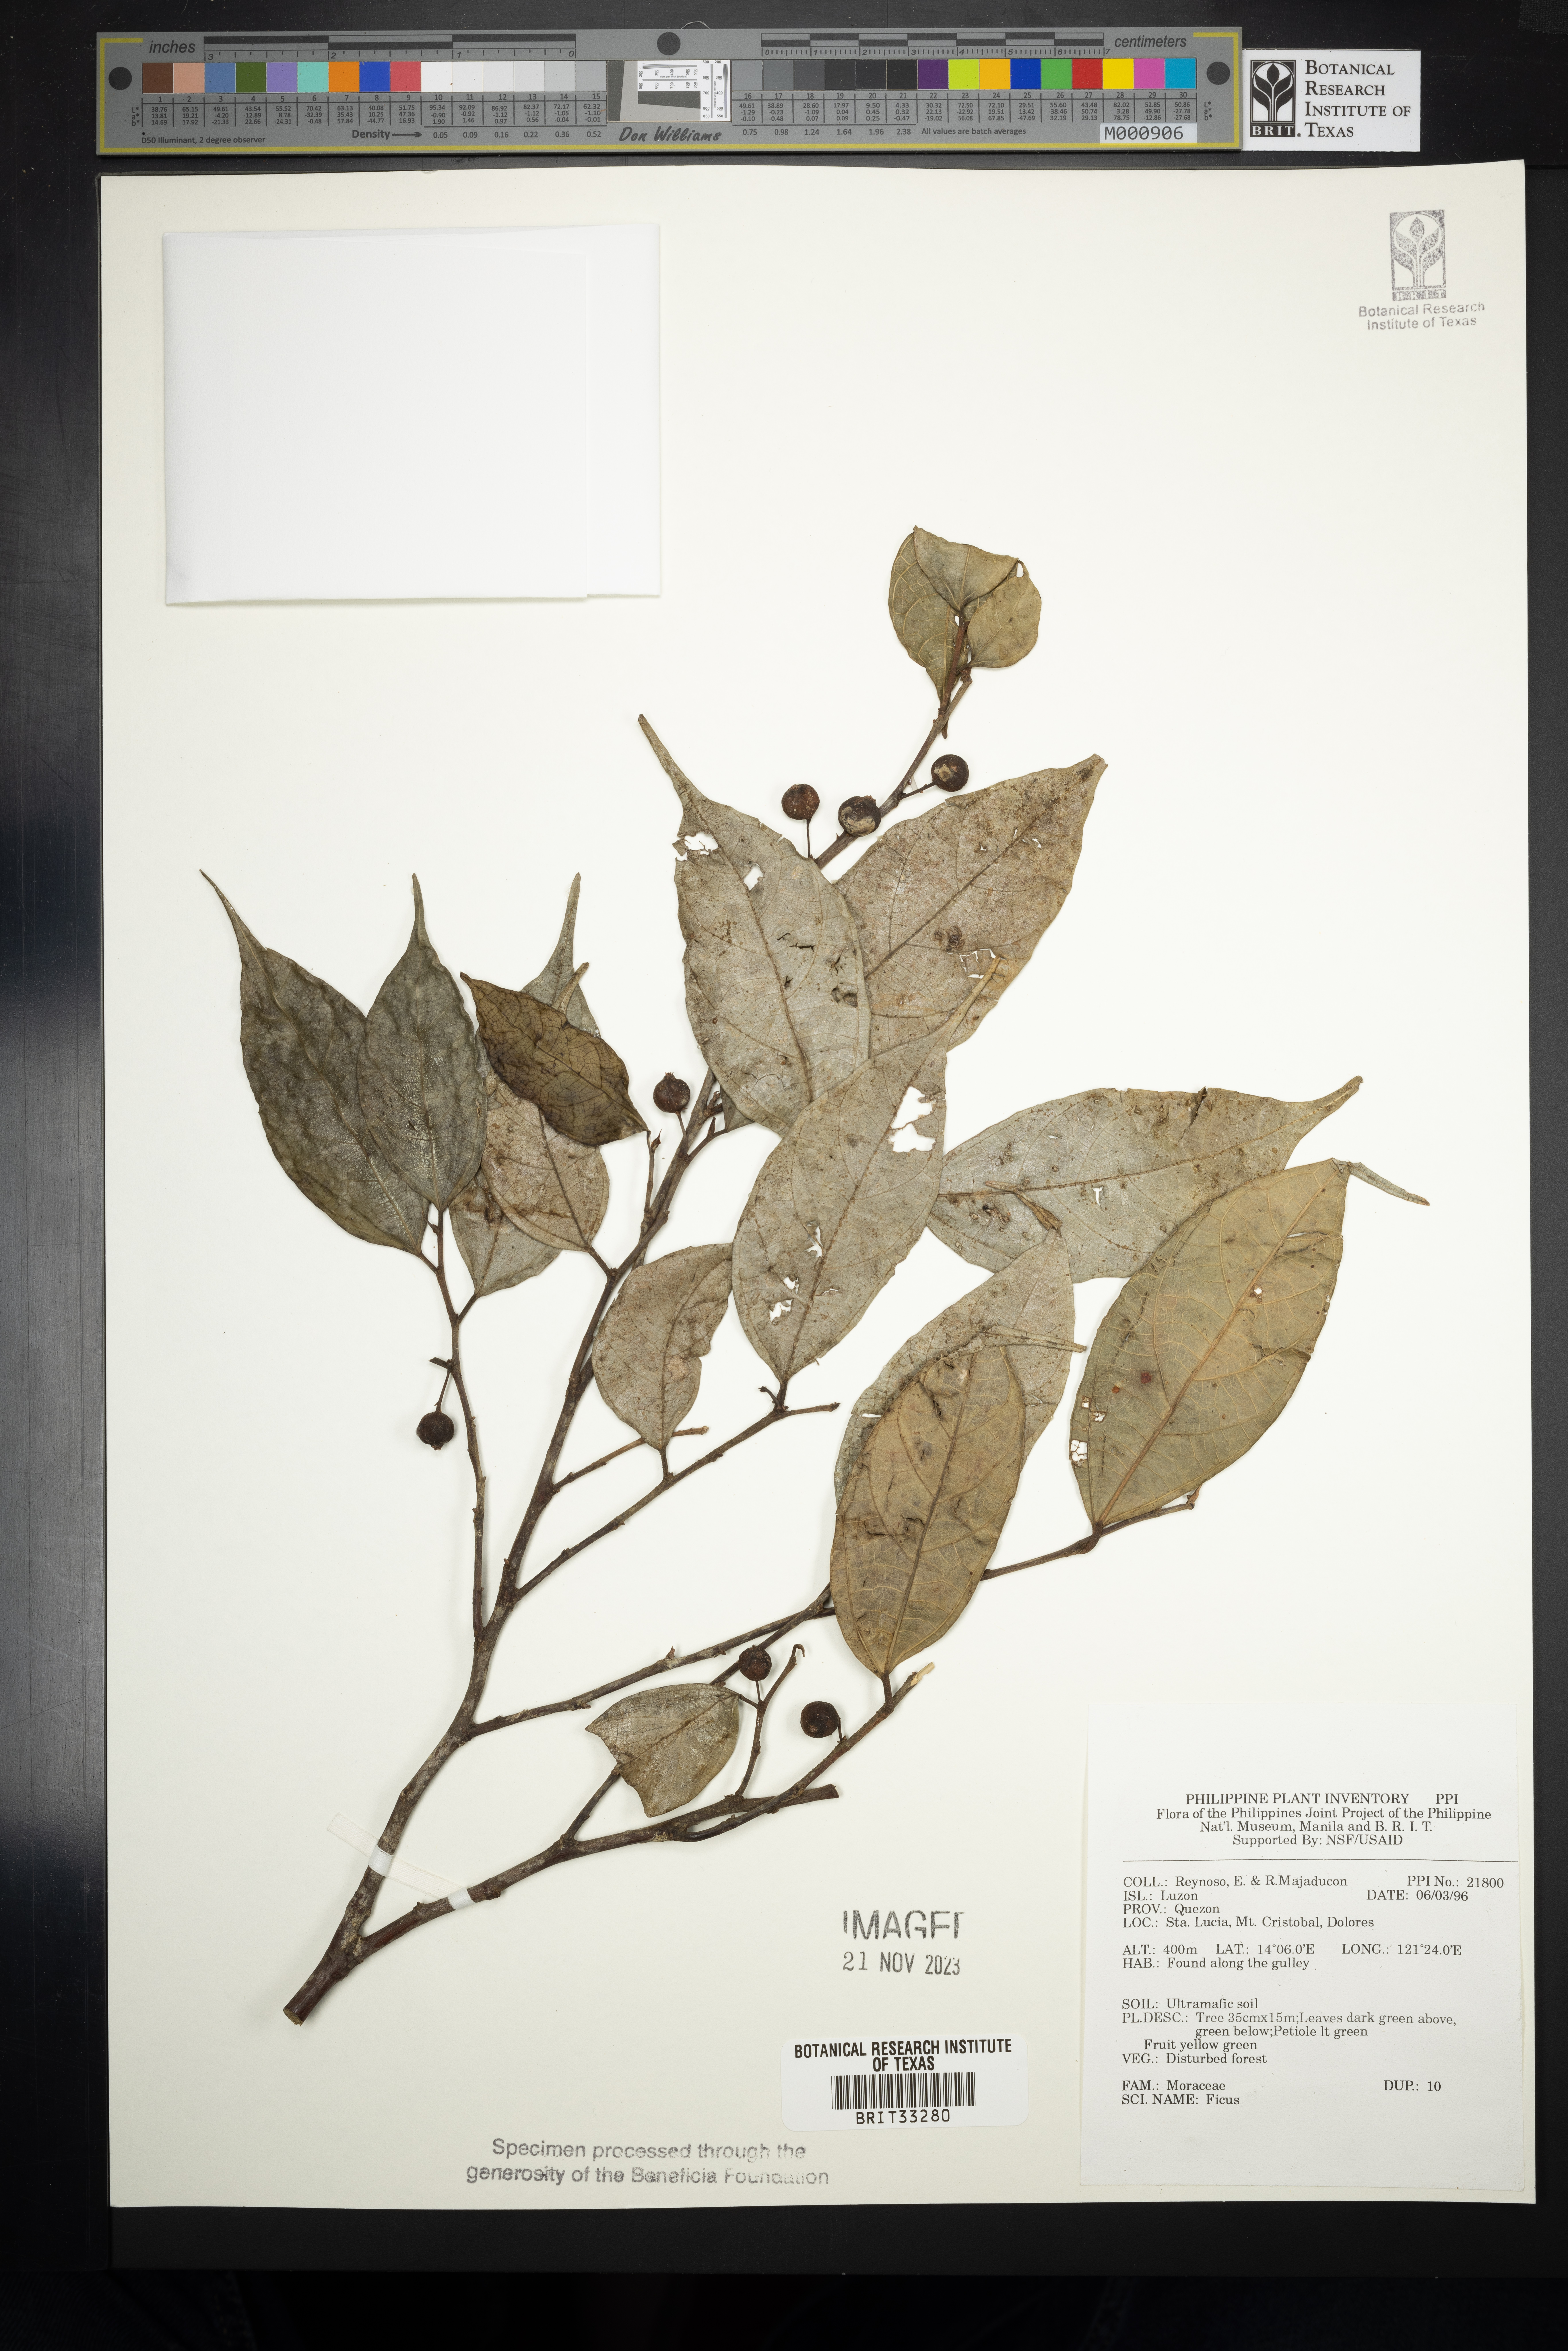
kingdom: Plantae
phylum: Tracheophyta
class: Magnoliopsida
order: Rosales
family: Moraceae
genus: Ficus
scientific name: Ficus
